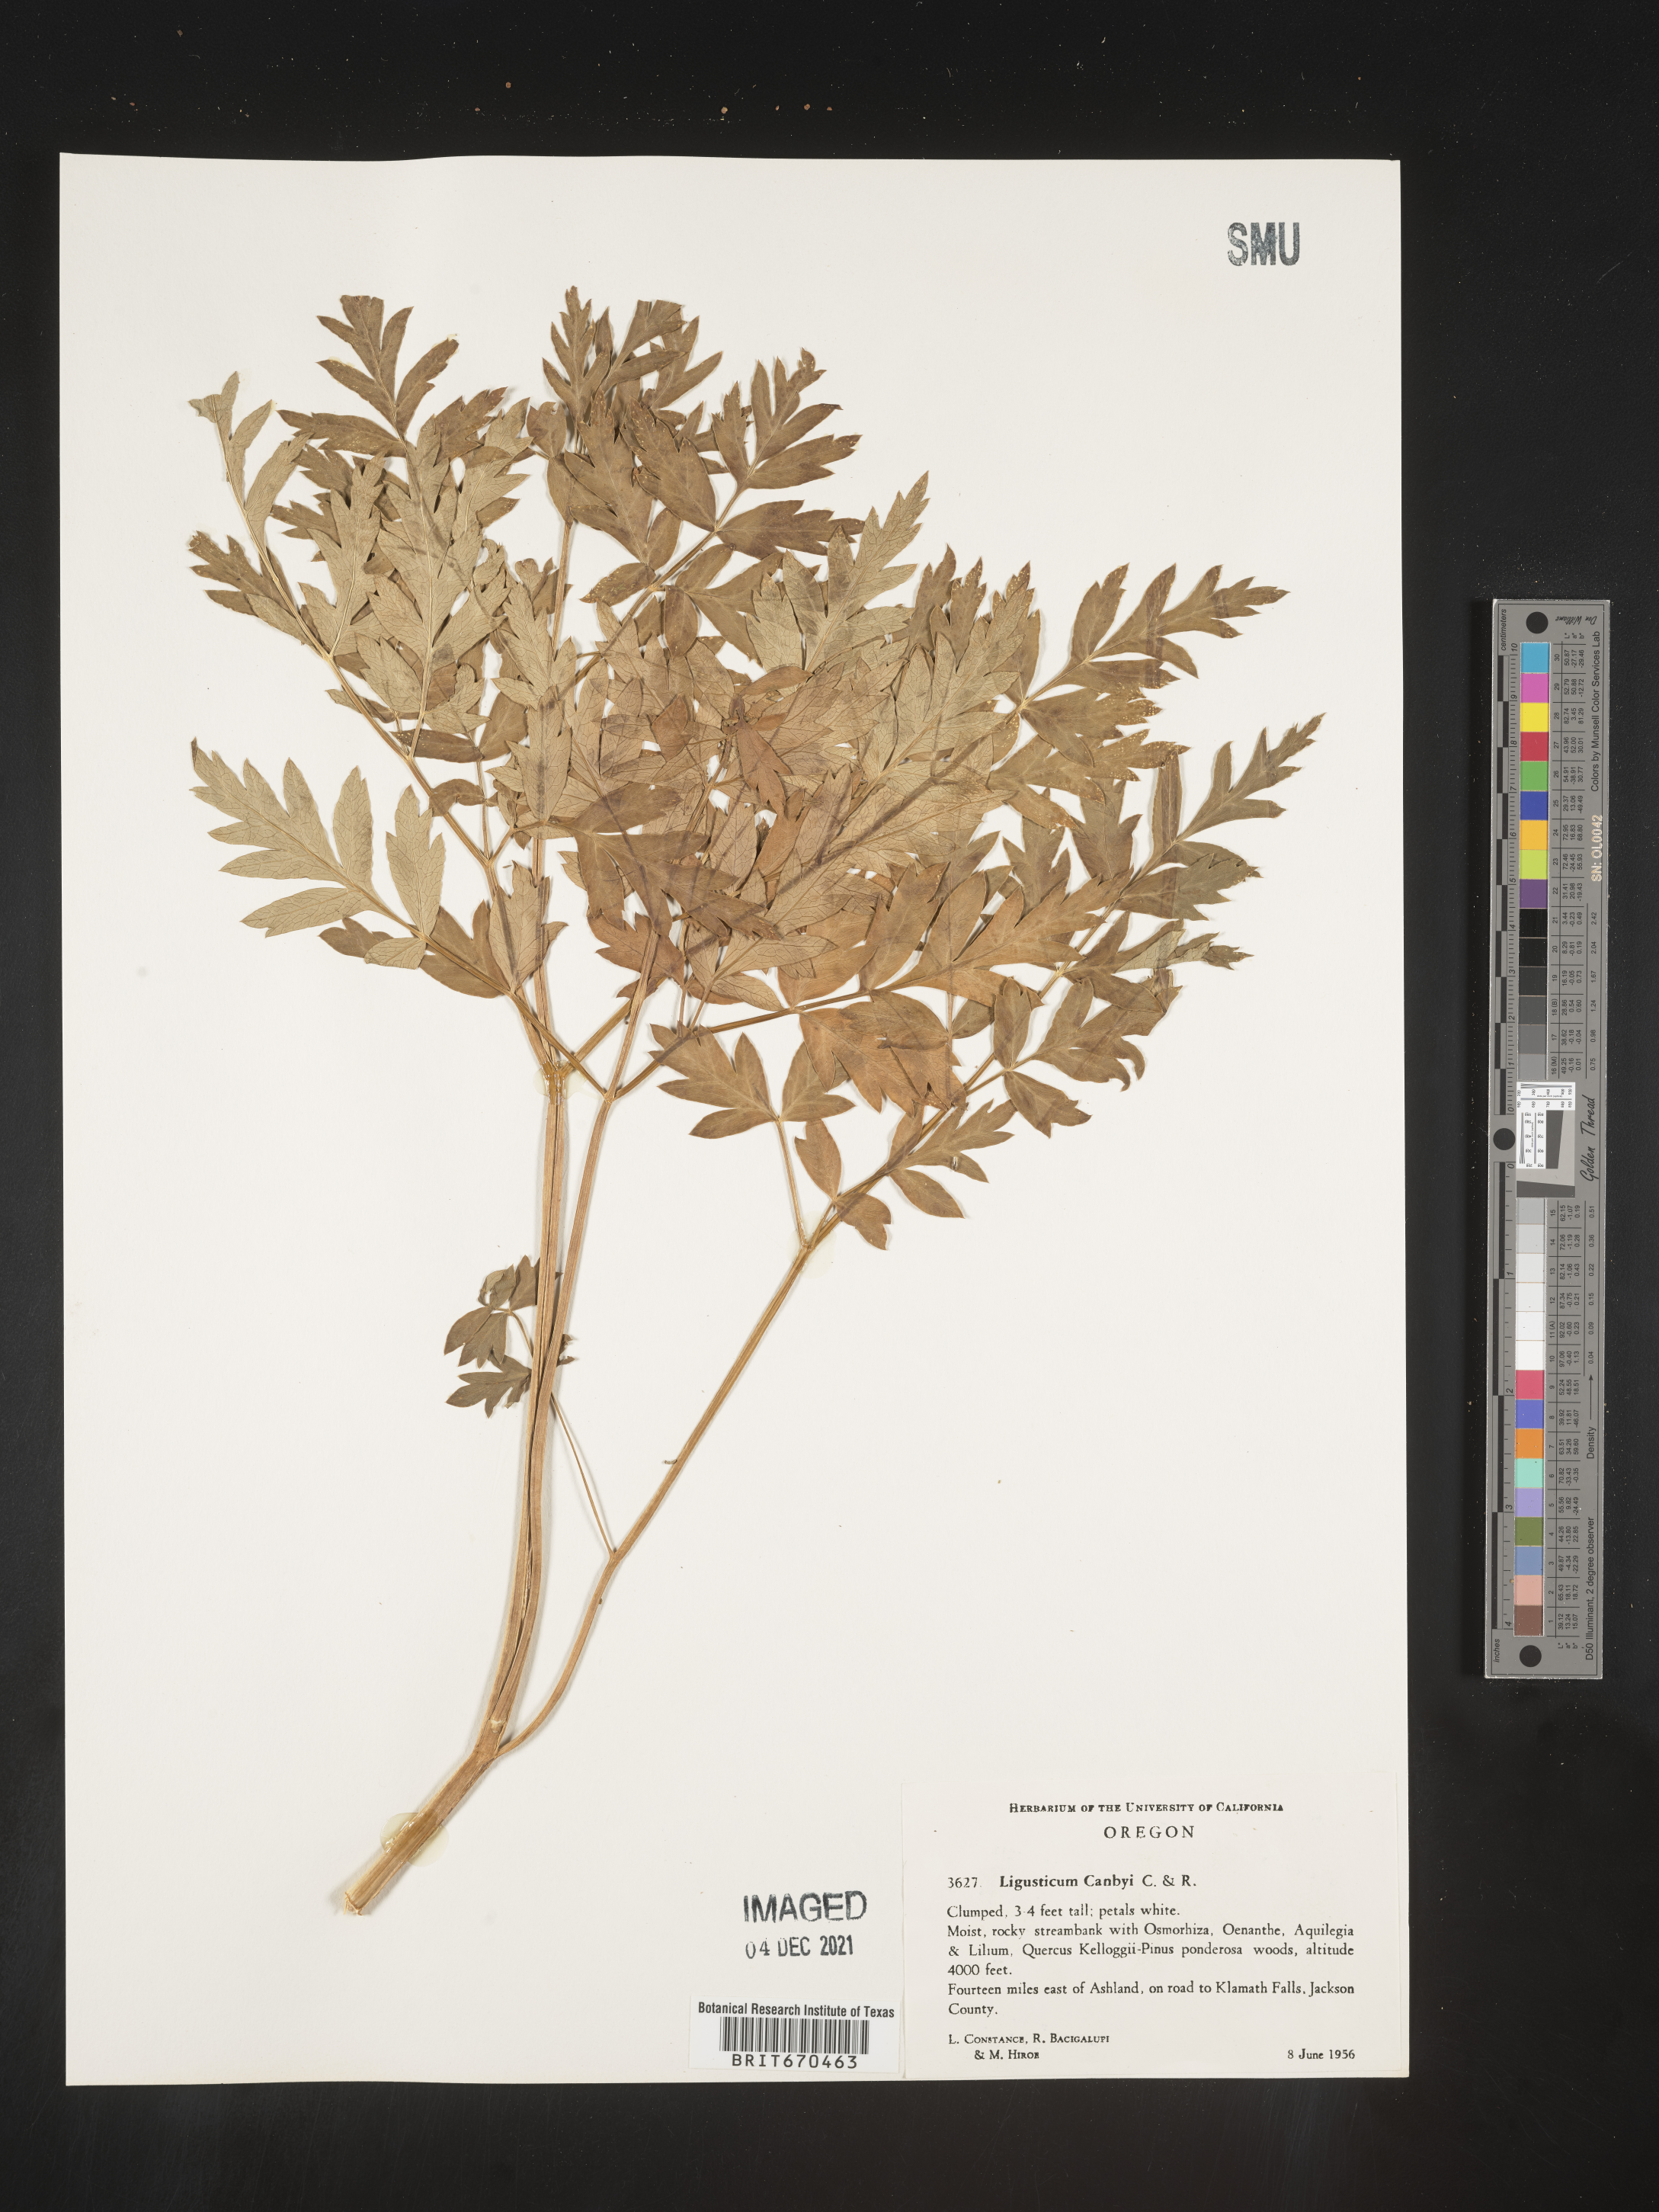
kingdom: Plantae
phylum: Tracheophyta
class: Magnoliopsida
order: Apiales
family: Apiaceae
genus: Ligusticum
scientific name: Ligusticum
